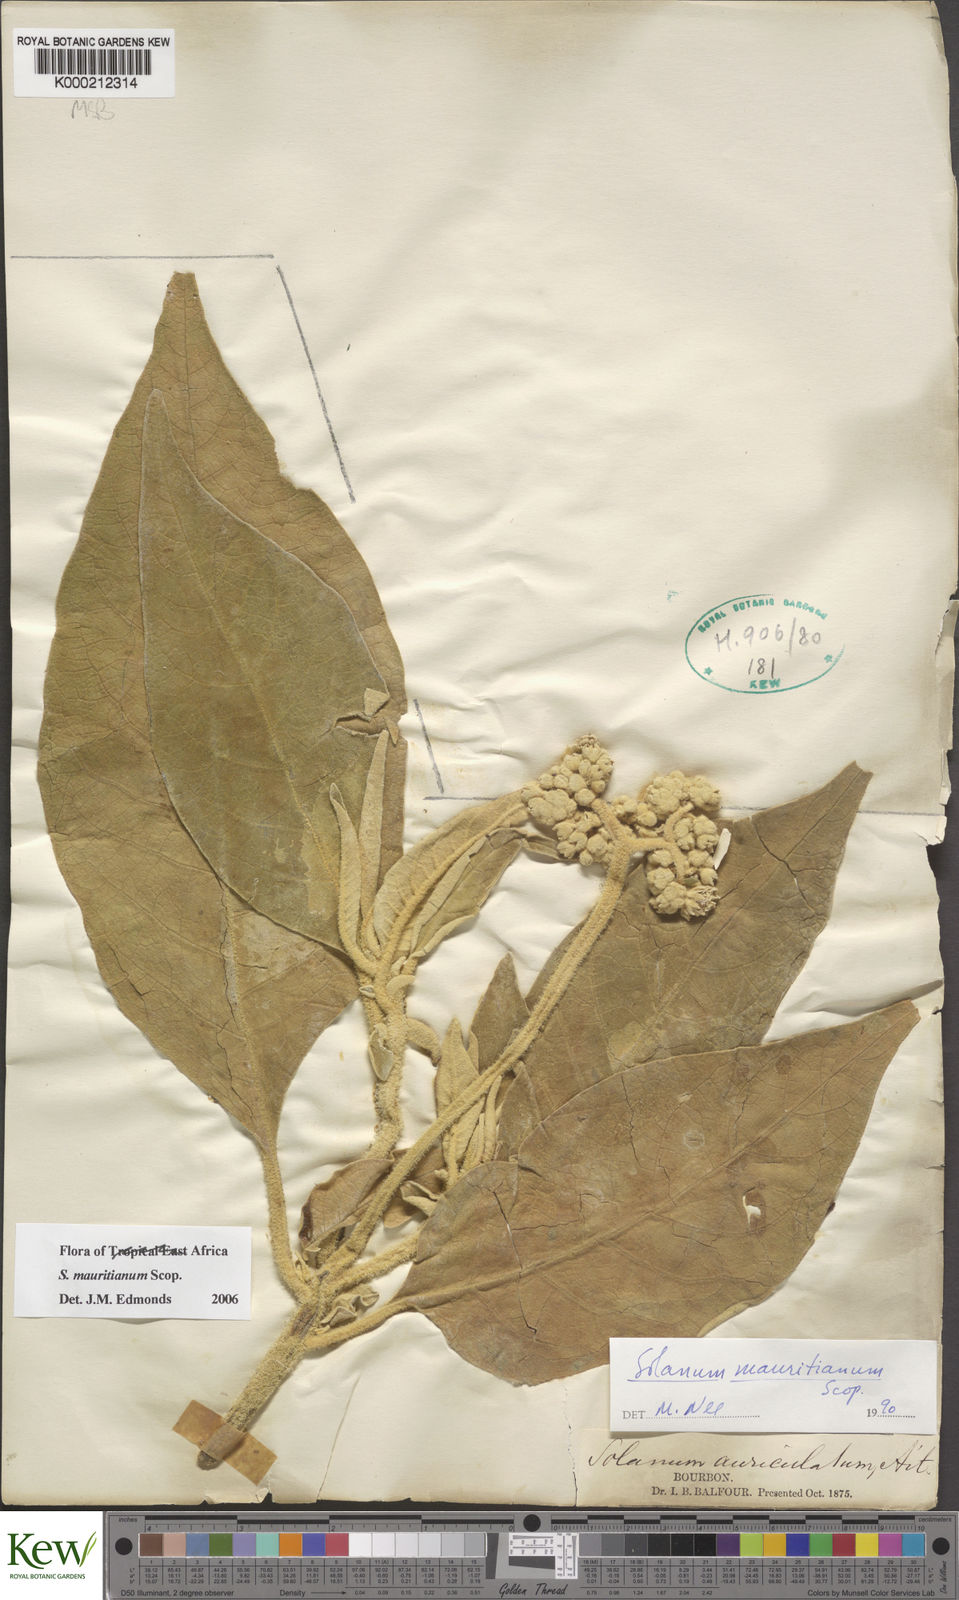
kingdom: Plantae
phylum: Tracheophyta
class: Magnoliopsida
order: Solanales
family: Solanaceae
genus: Solanum
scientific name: Solanum mauritianum
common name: Earleaf nightshade
